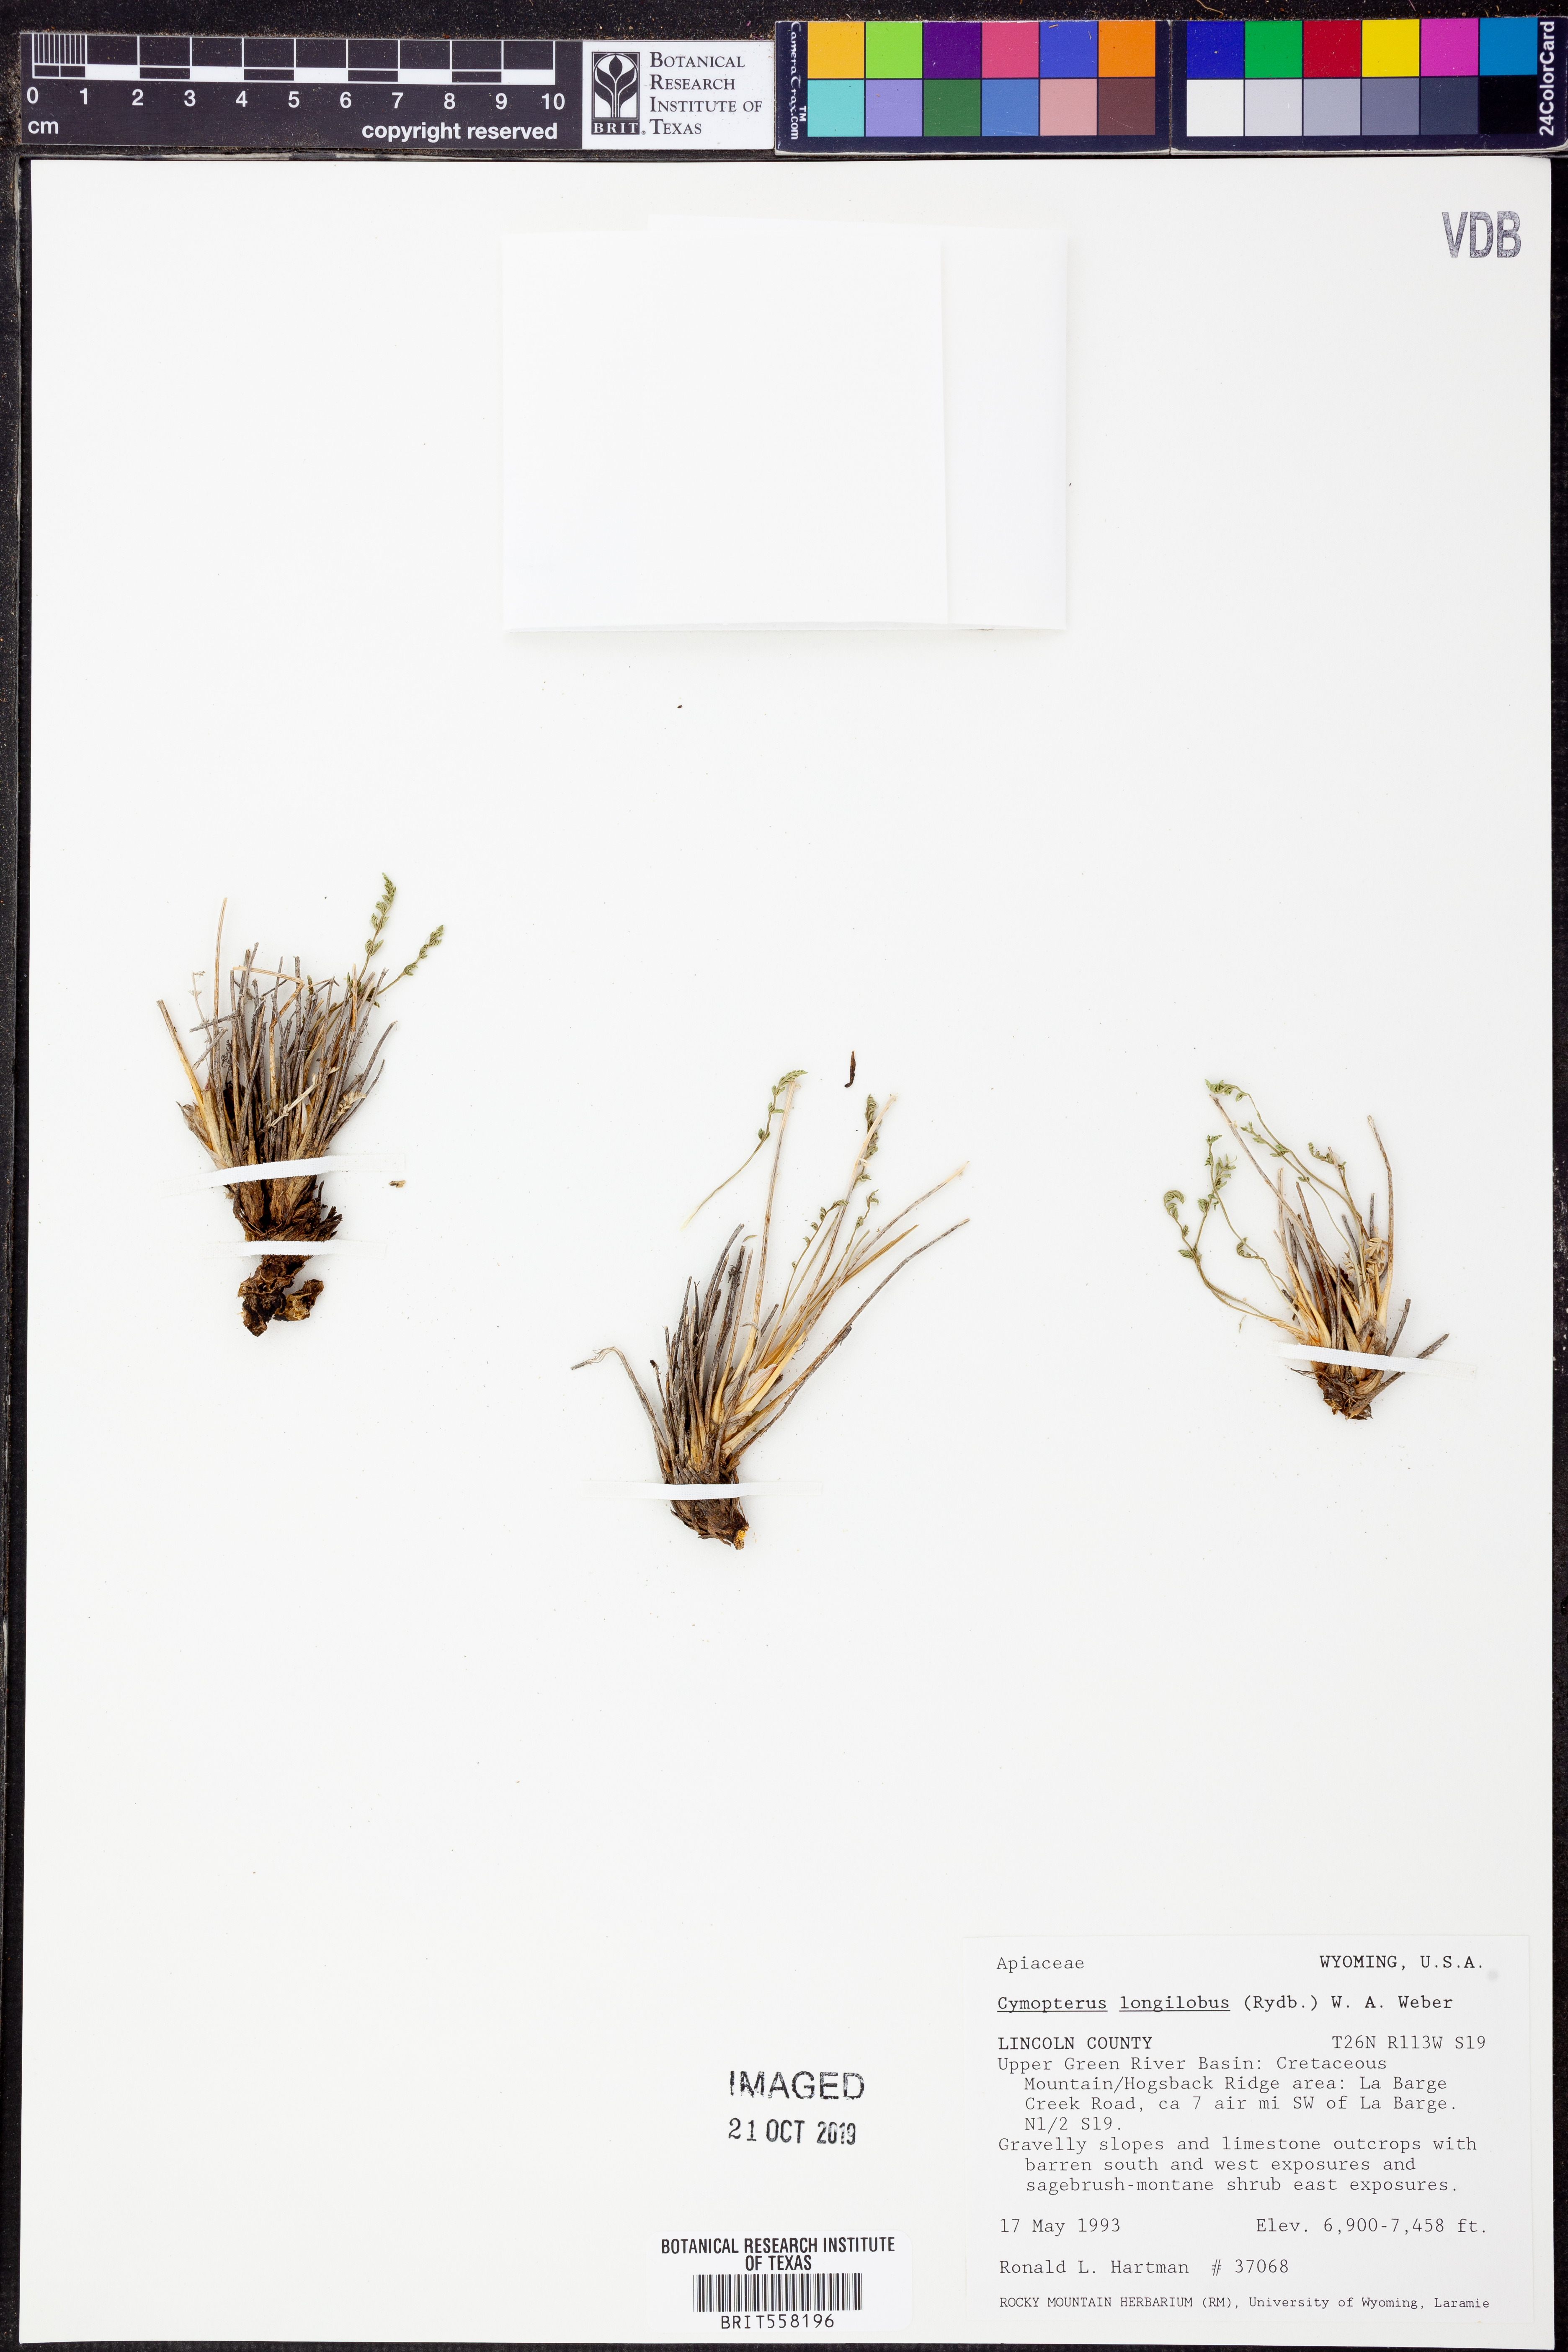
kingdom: Plantae
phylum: Tracheophyta
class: Magnoliopsida
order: Apiales
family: Apiaceae
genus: Pteryxia
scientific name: Pteryxia hendersonii
